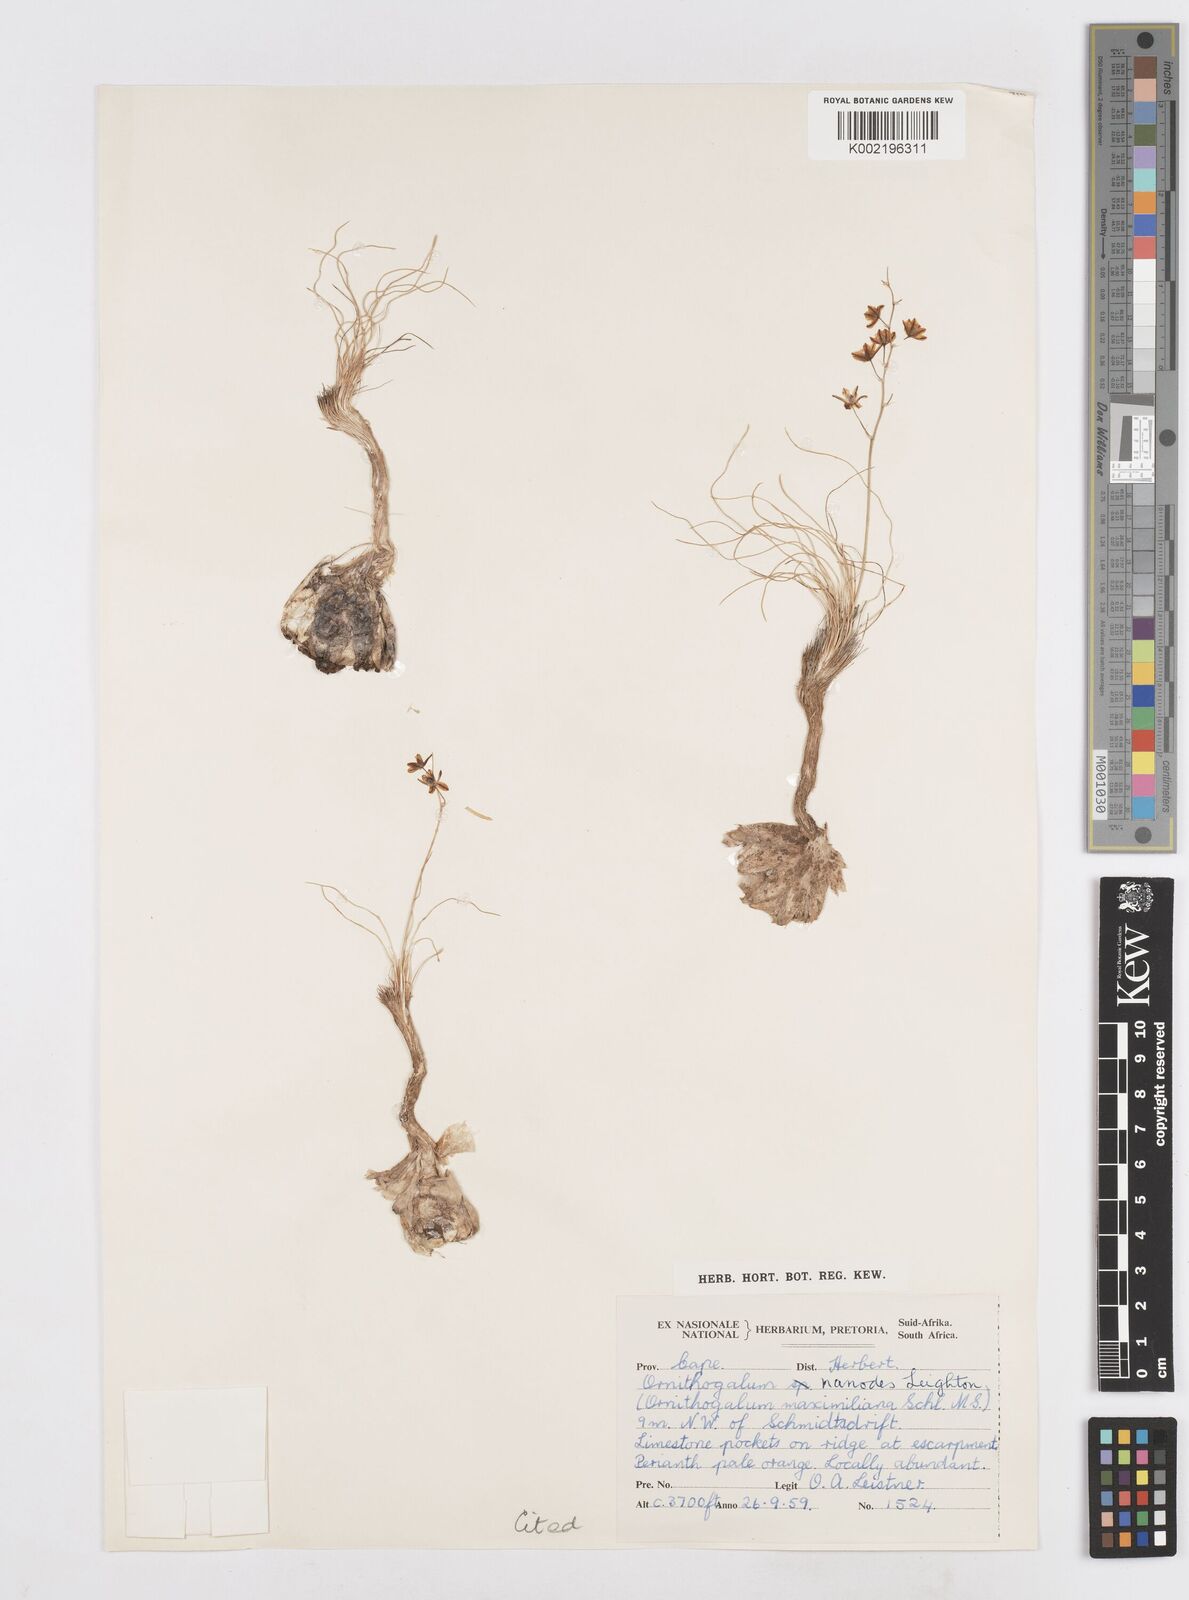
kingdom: Plantae
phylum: Tracheophyta
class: Liliopsida
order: Asparagales
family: Asparagaceae
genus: Ornithogalum
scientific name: Ornithogalum nanodes
